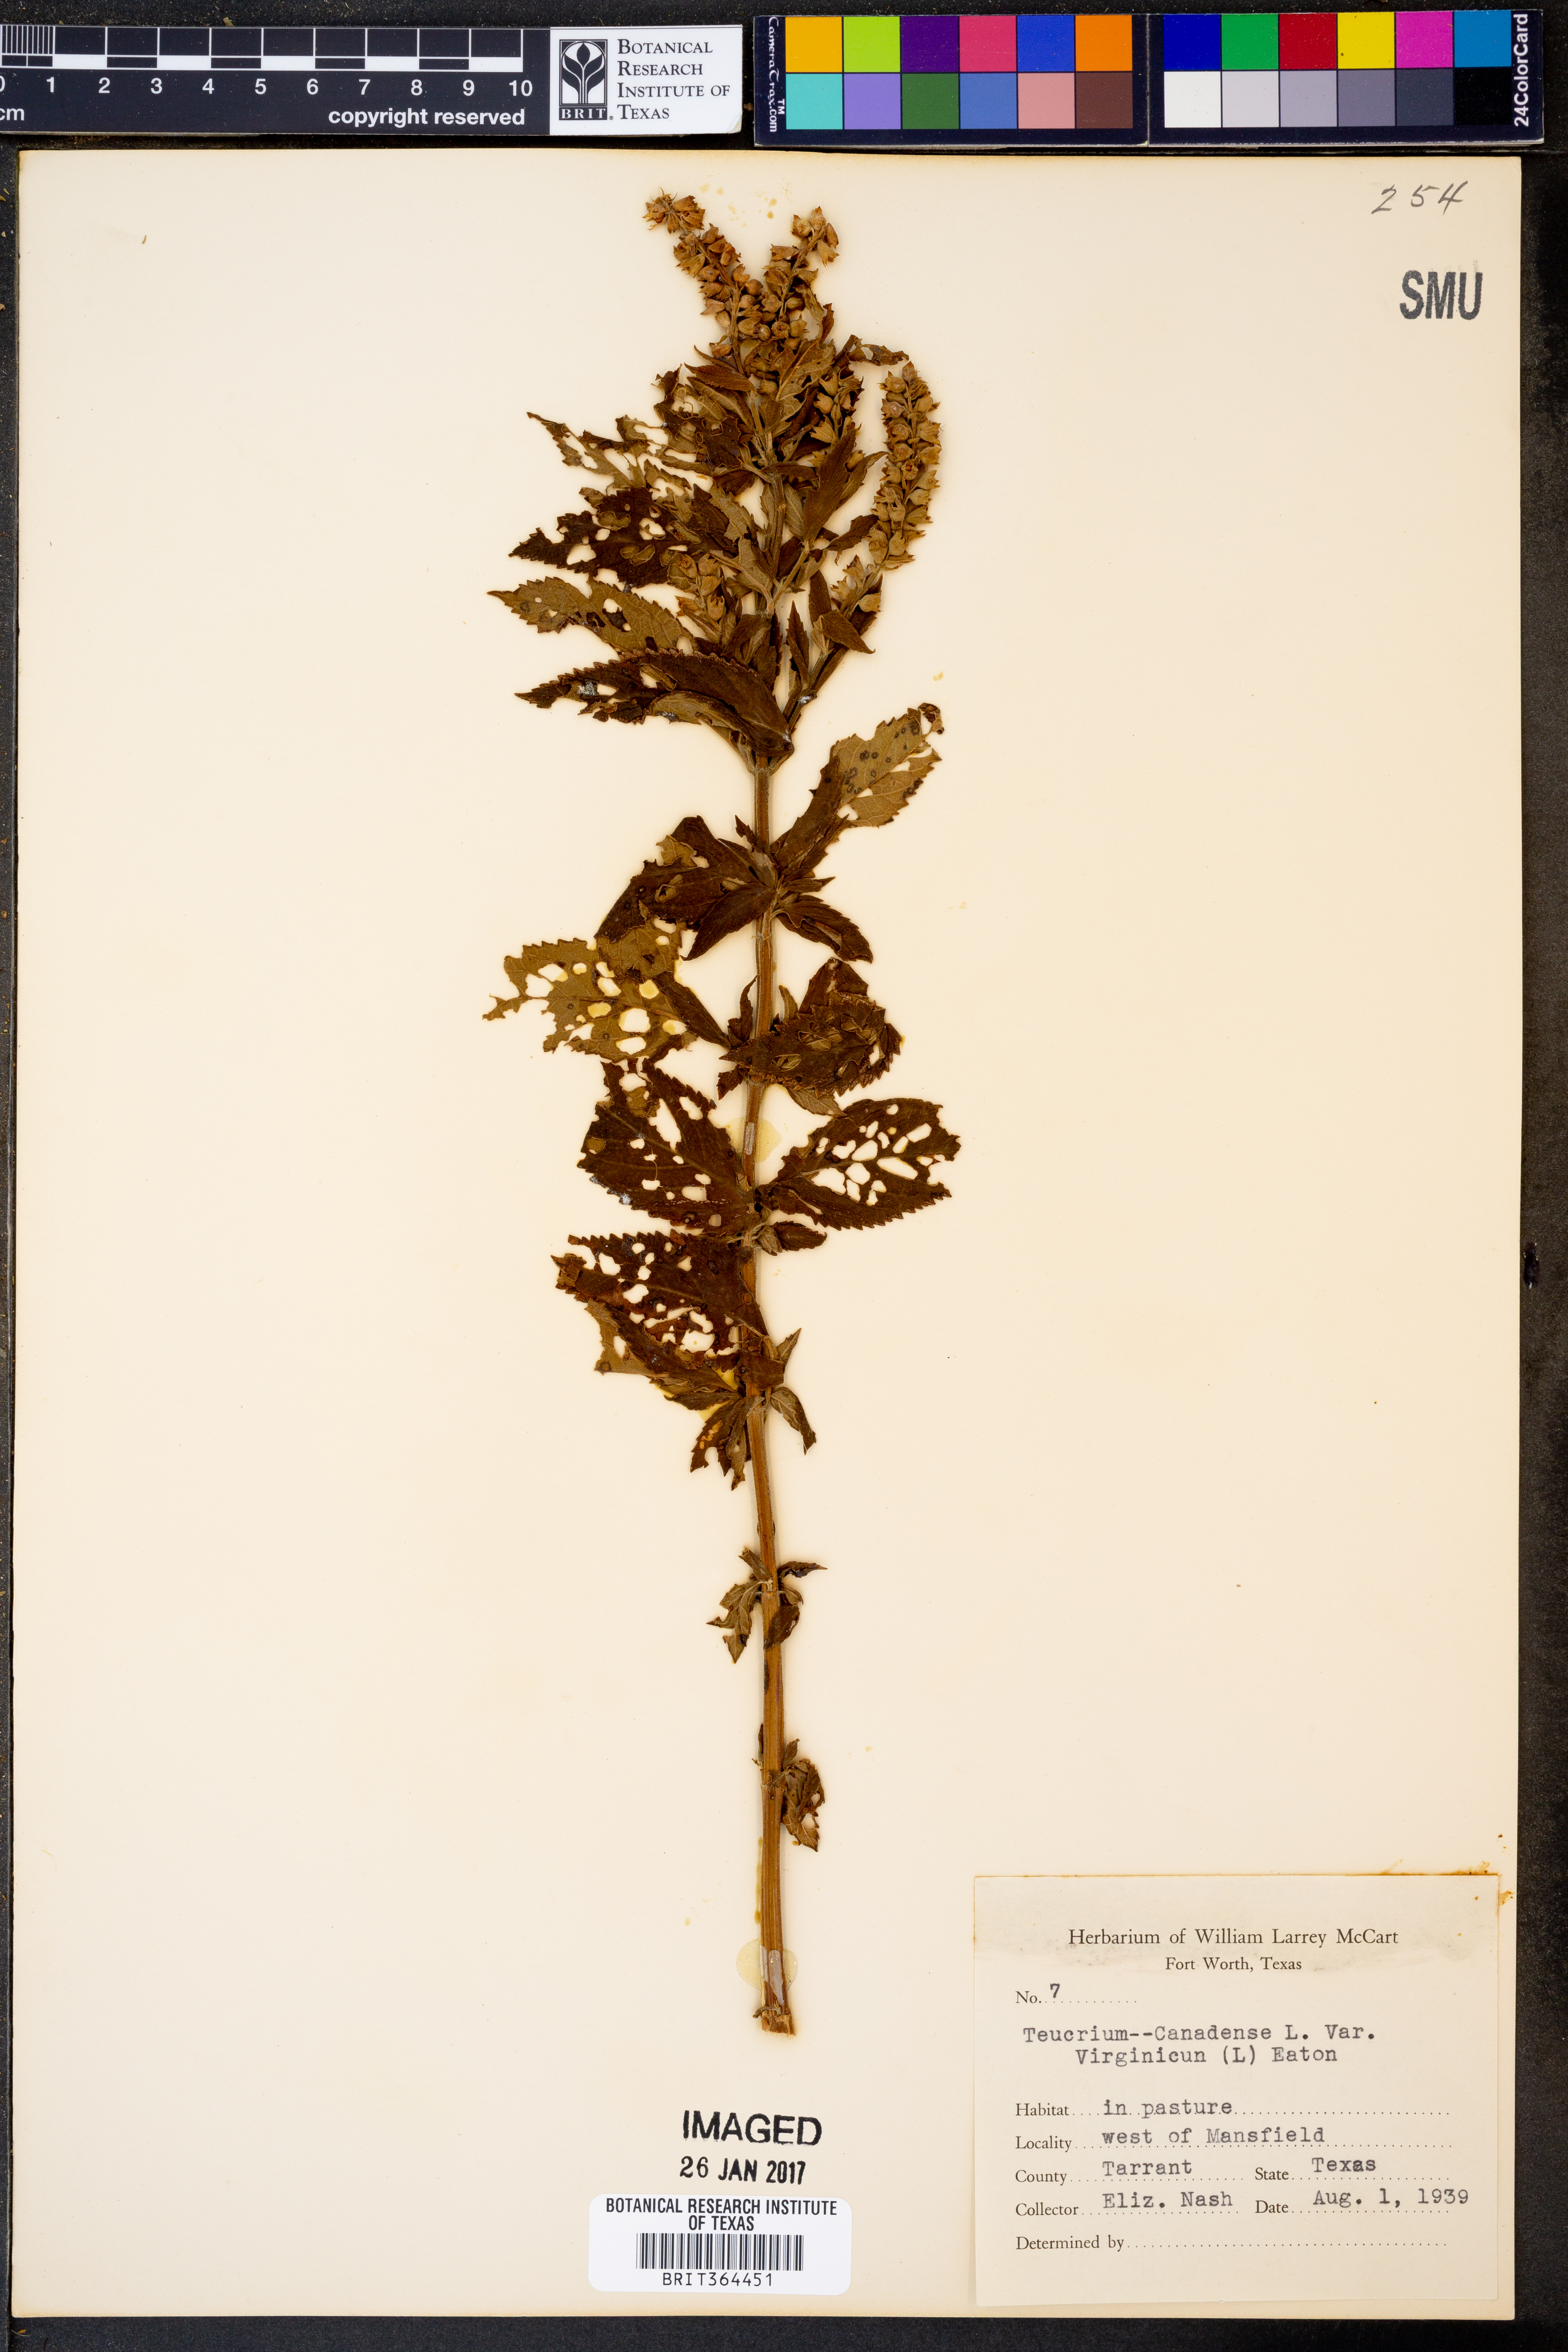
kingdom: Plantae
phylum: Tracheophyta
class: Magnoliopsida
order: Lamiales
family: Lamiaceae
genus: Teucrium
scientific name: Teucrium canadense
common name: American germander
